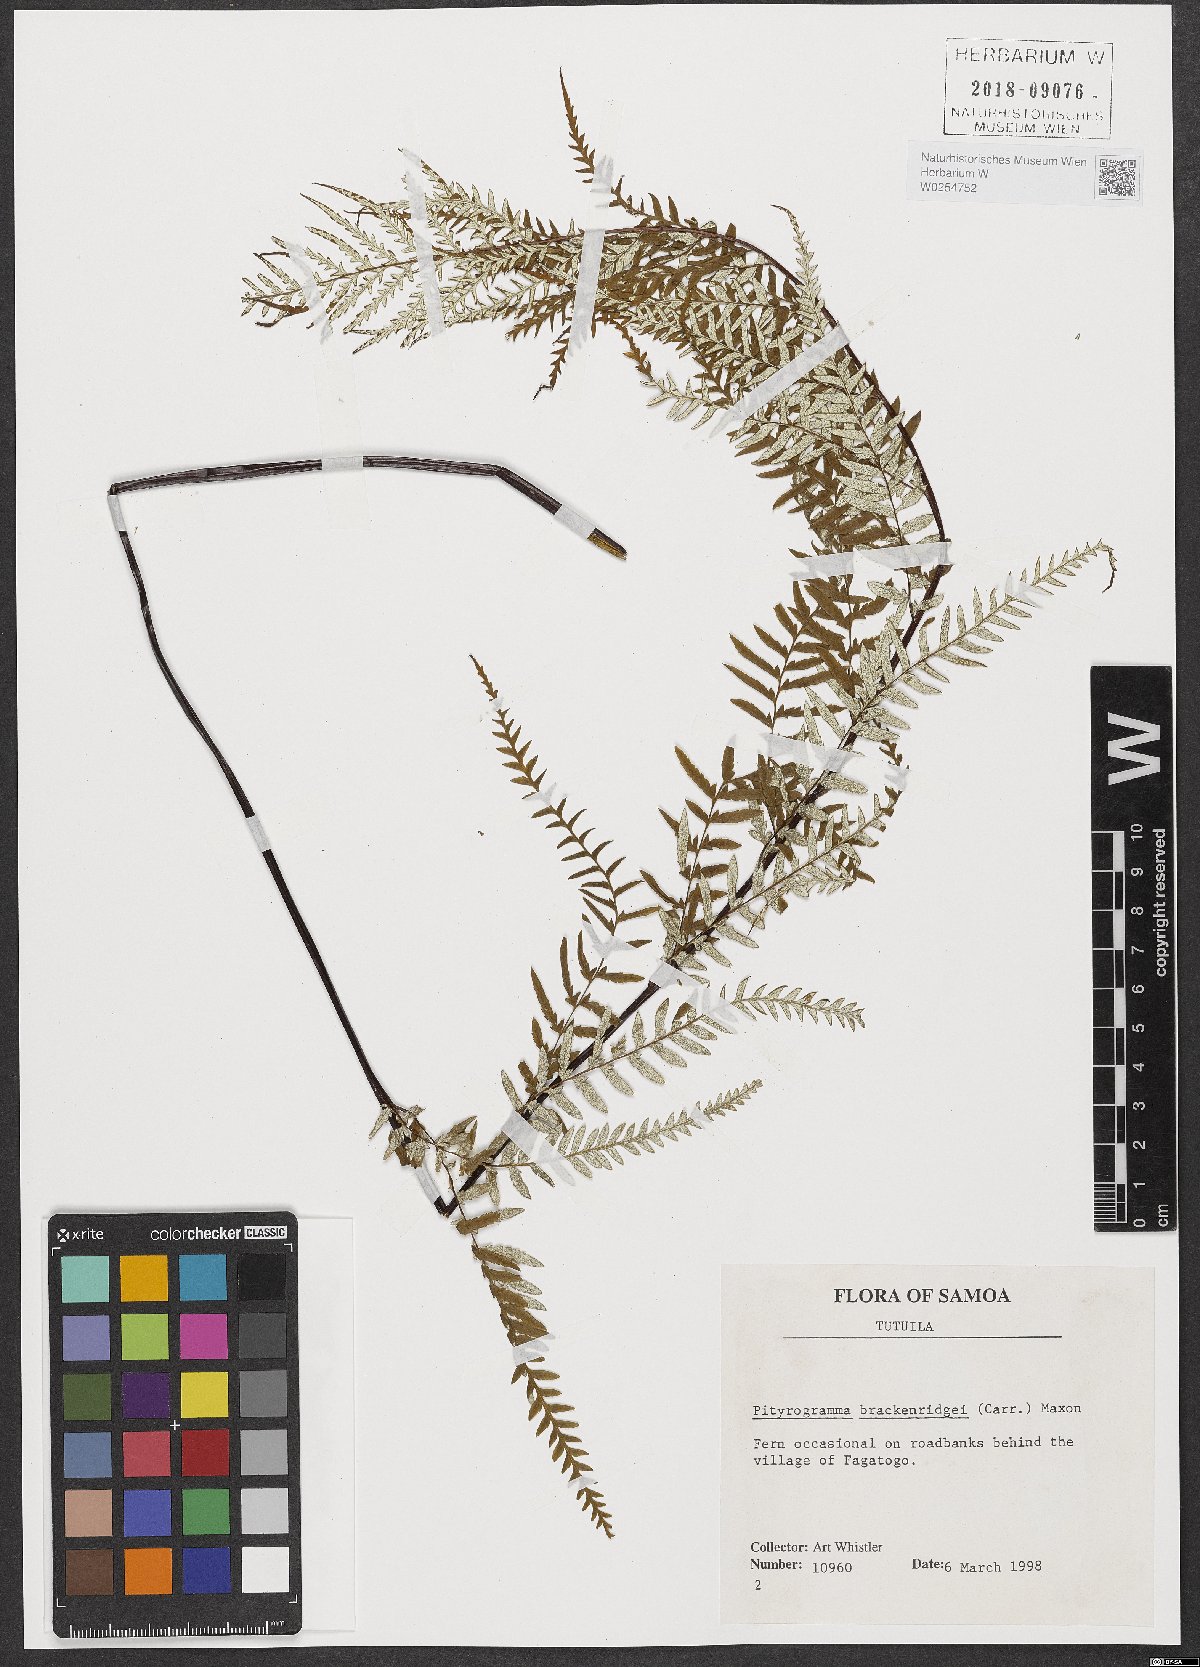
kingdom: Plantae
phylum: Tracheophyta
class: Polypodiopsida
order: Polypodiales
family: Pteridaceae
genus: Pityrogramma
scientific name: Pityrogramma chrysophylla
